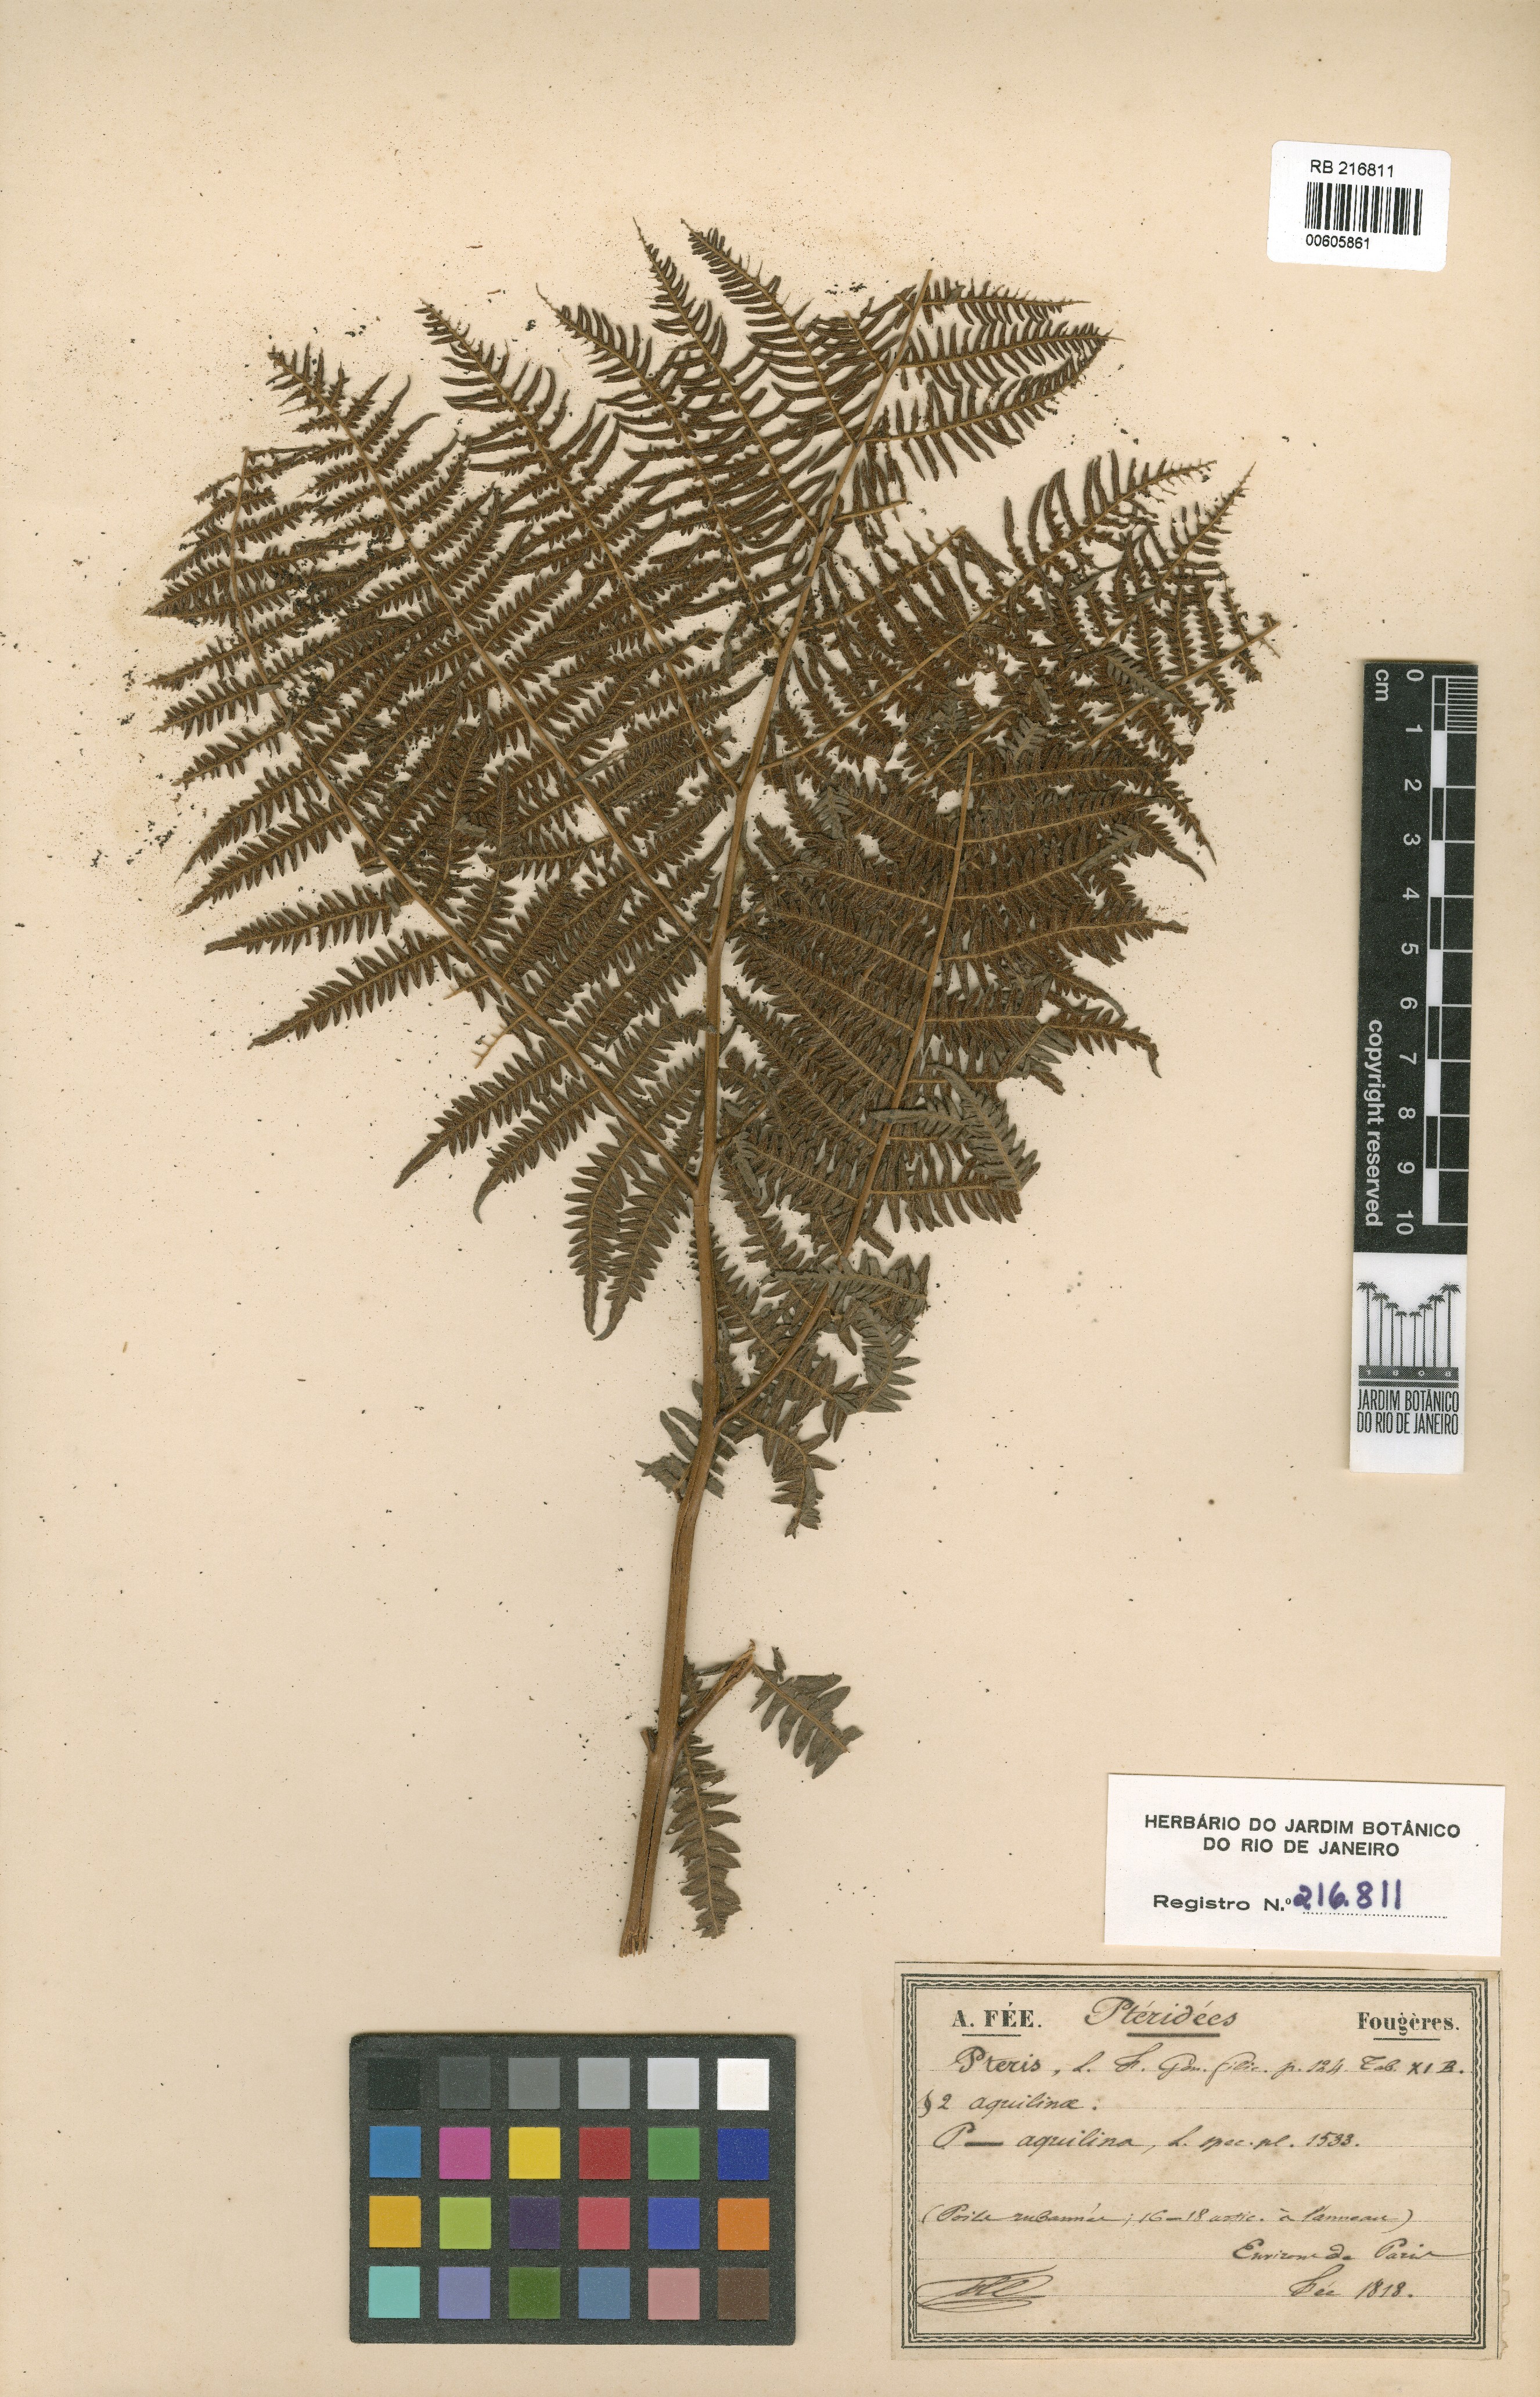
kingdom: Plantae
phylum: Tracheophyta
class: Polypodiopsida
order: Polypodiales
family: Dennstaedtiaceae
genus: Pteridium
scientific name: Pteridium aquilinum
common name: Bracken
